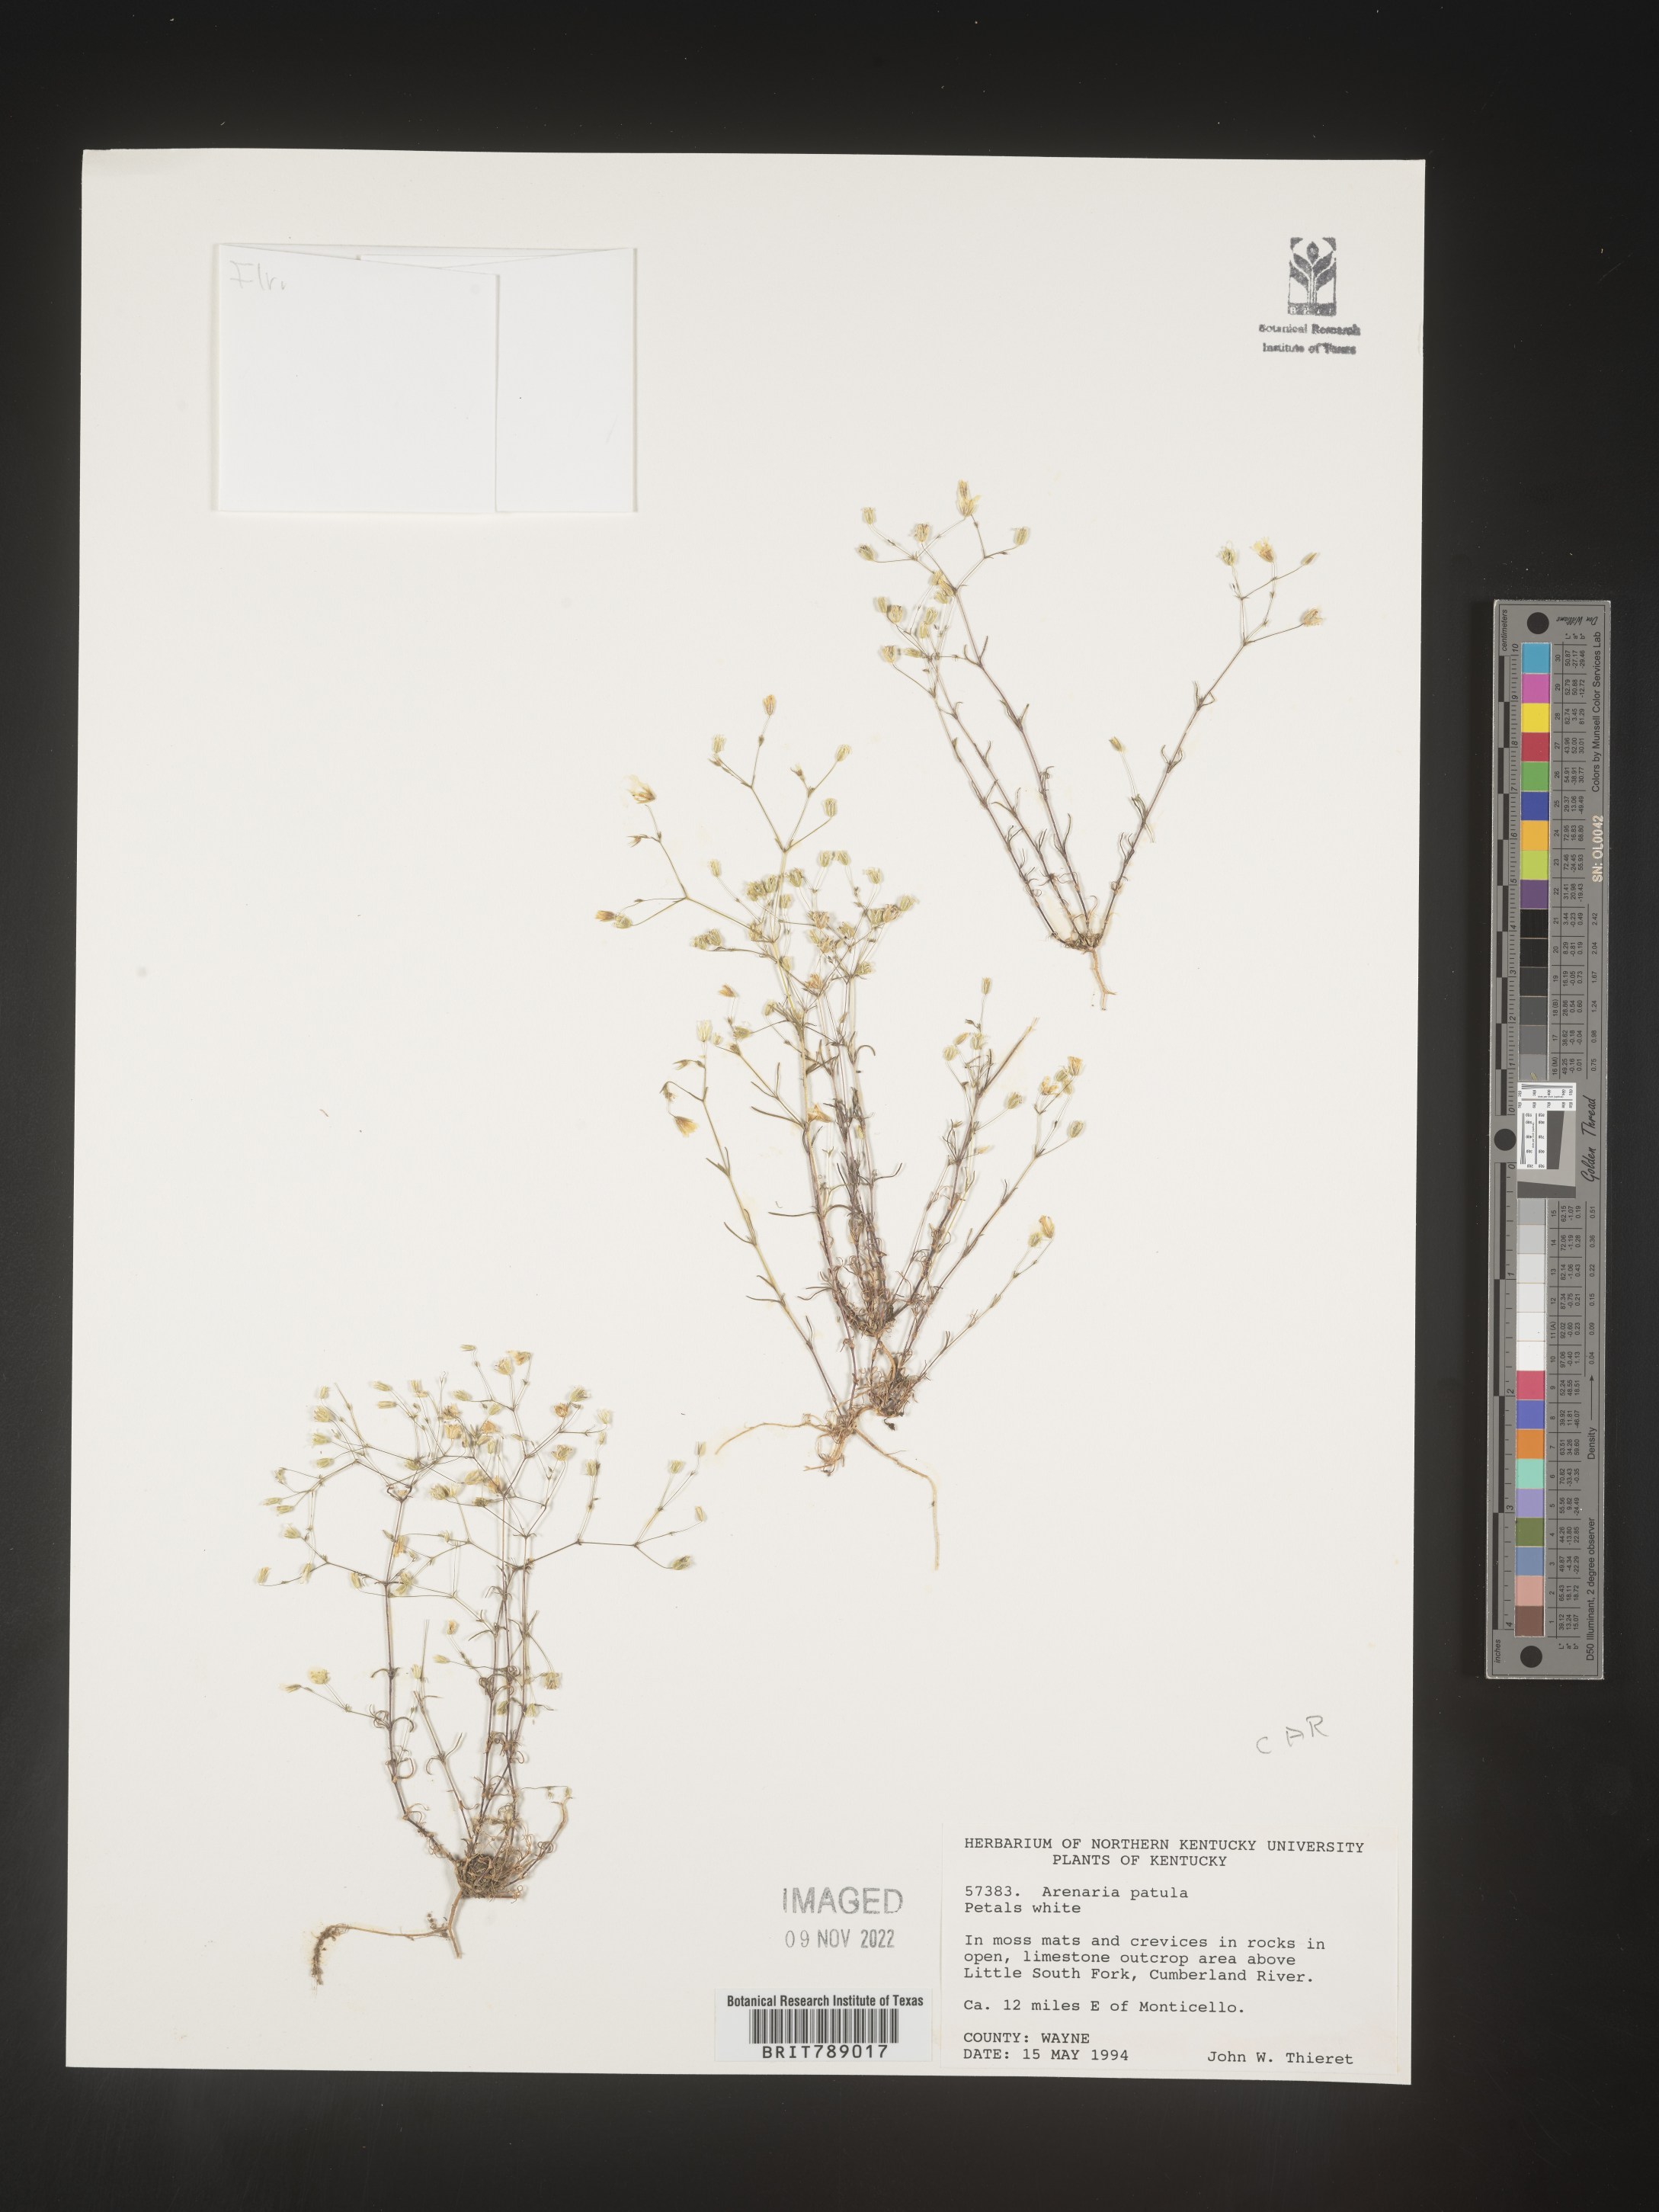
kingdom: Plantae
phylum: Tracheophyta
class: Magnoliopsida
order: Caryophyllales
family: Caryophyllaceae
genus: Mononeuria
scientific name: Mononeuria patula
